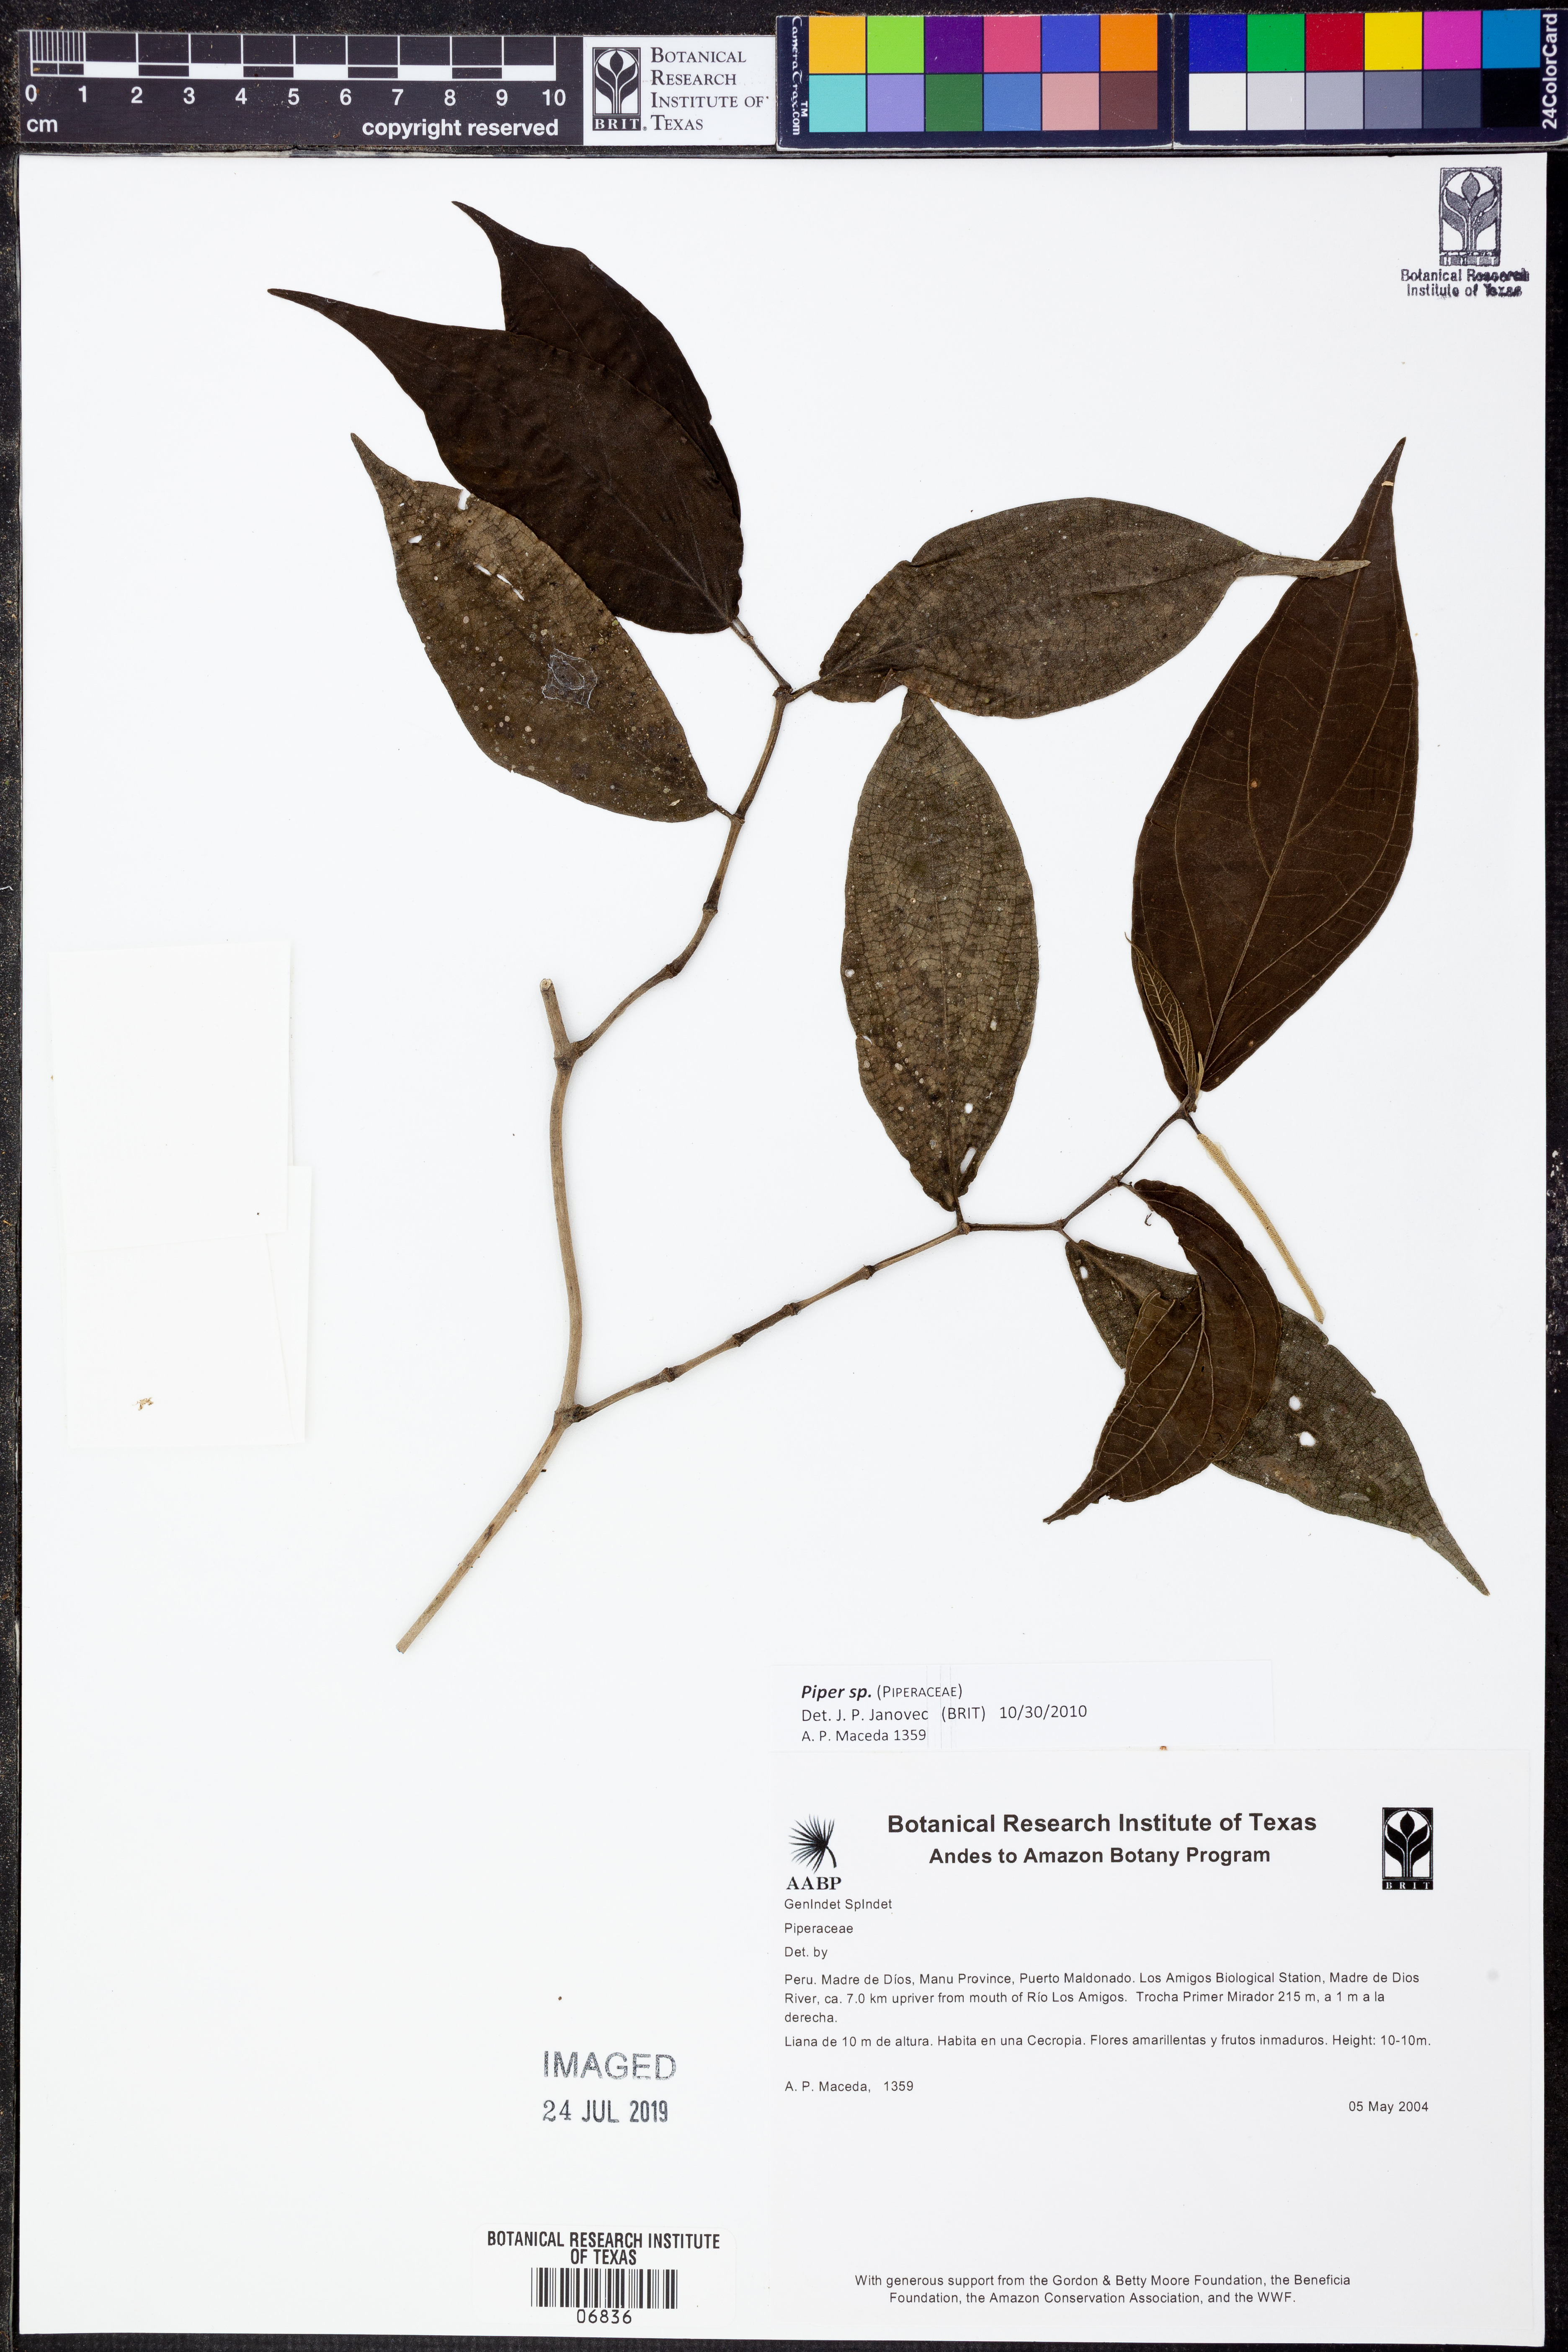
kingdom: Plantae
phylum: Tracheophyta
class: Magnoliopsida
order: Piperales
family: Piperaceae
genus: Piper
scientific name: Piper
